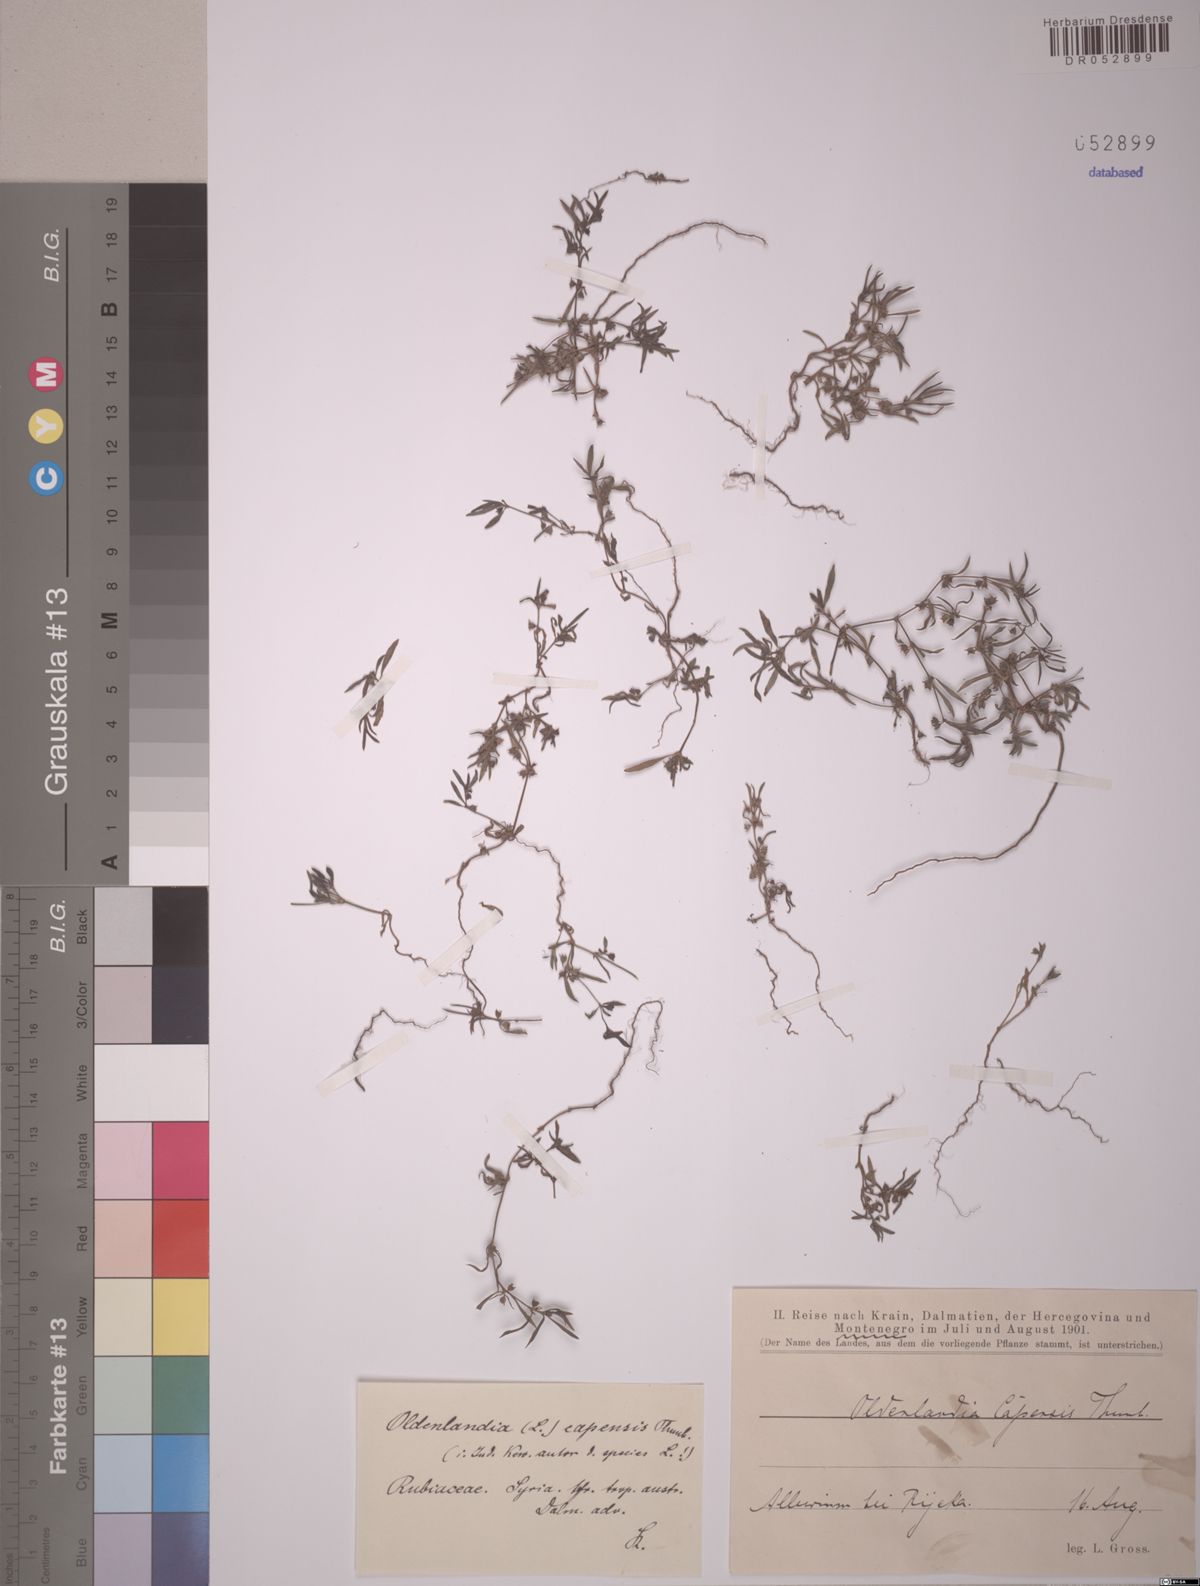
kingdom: Plantae
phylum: Tracheophyta
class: Magnoliopsida
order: Gentianales
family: Rubiaceae
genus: Oldenlandia
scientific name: Oldenlandia capensis
